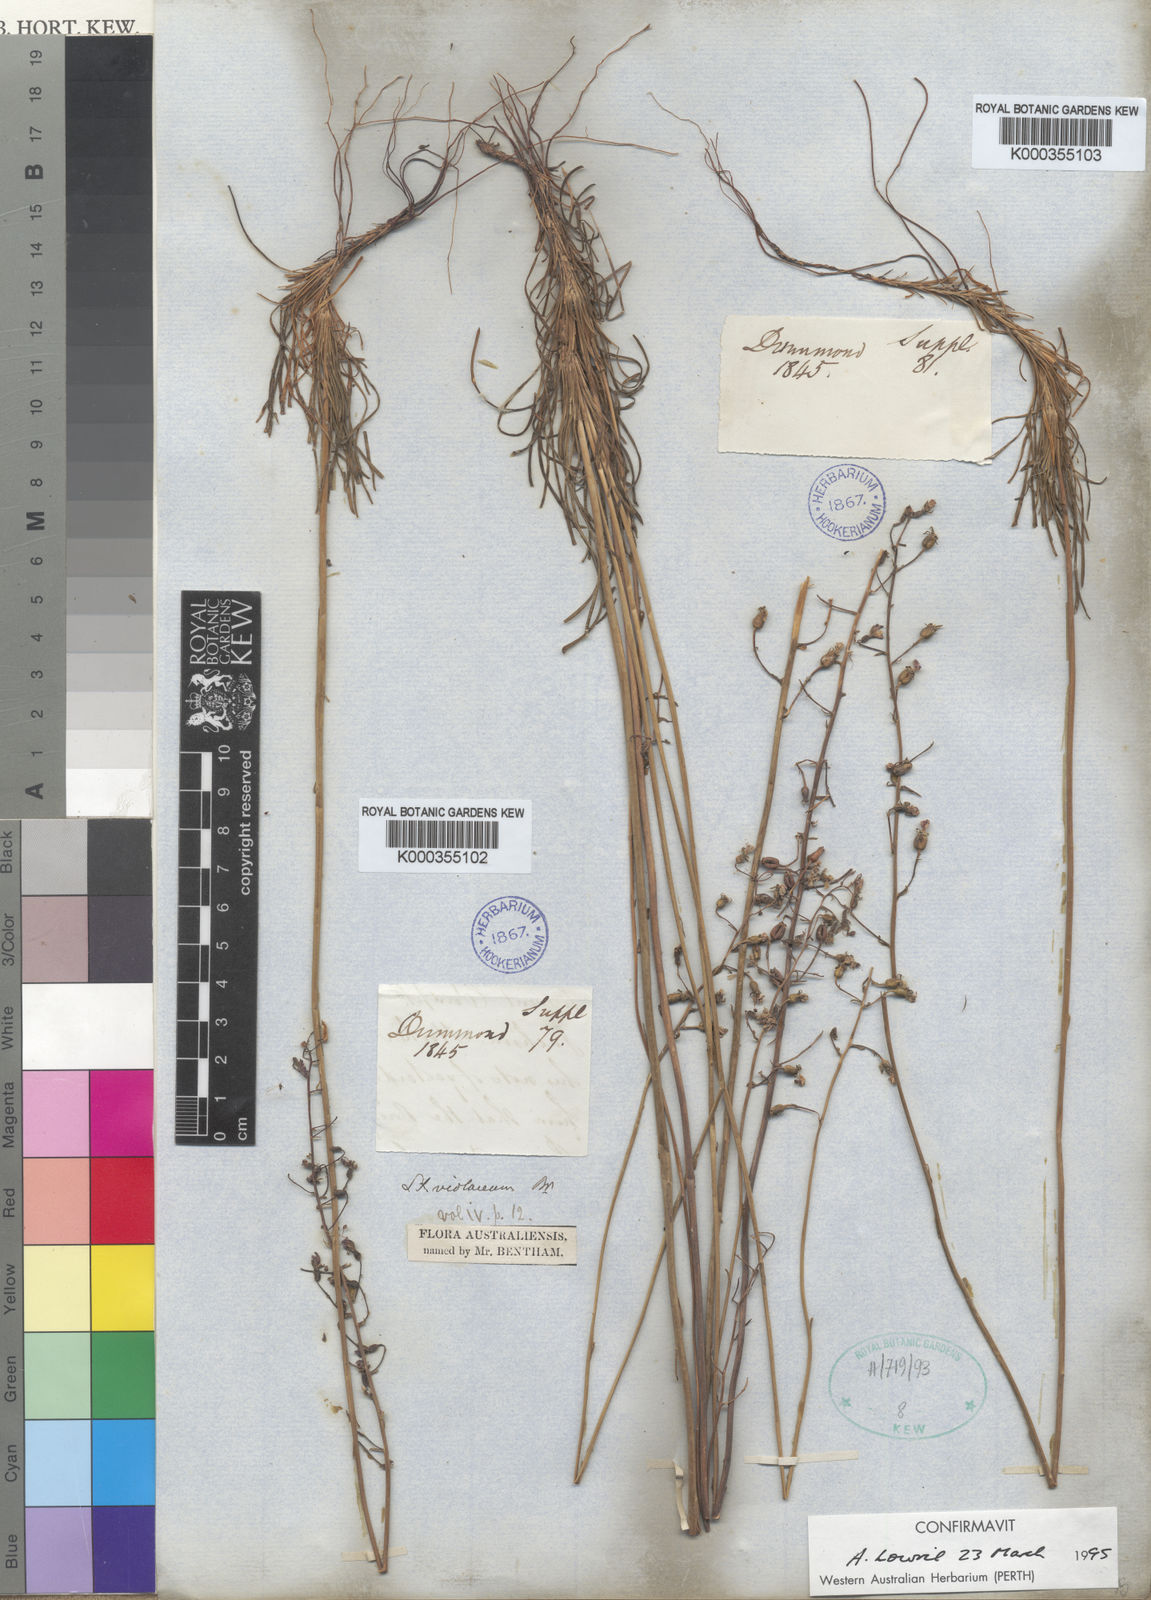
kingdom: Plantae
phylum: Tracheophyta
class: Magnoliopsida
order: Asterales
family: Stylidiaceae
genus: Stylidium
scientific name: Stylidium violaceum
